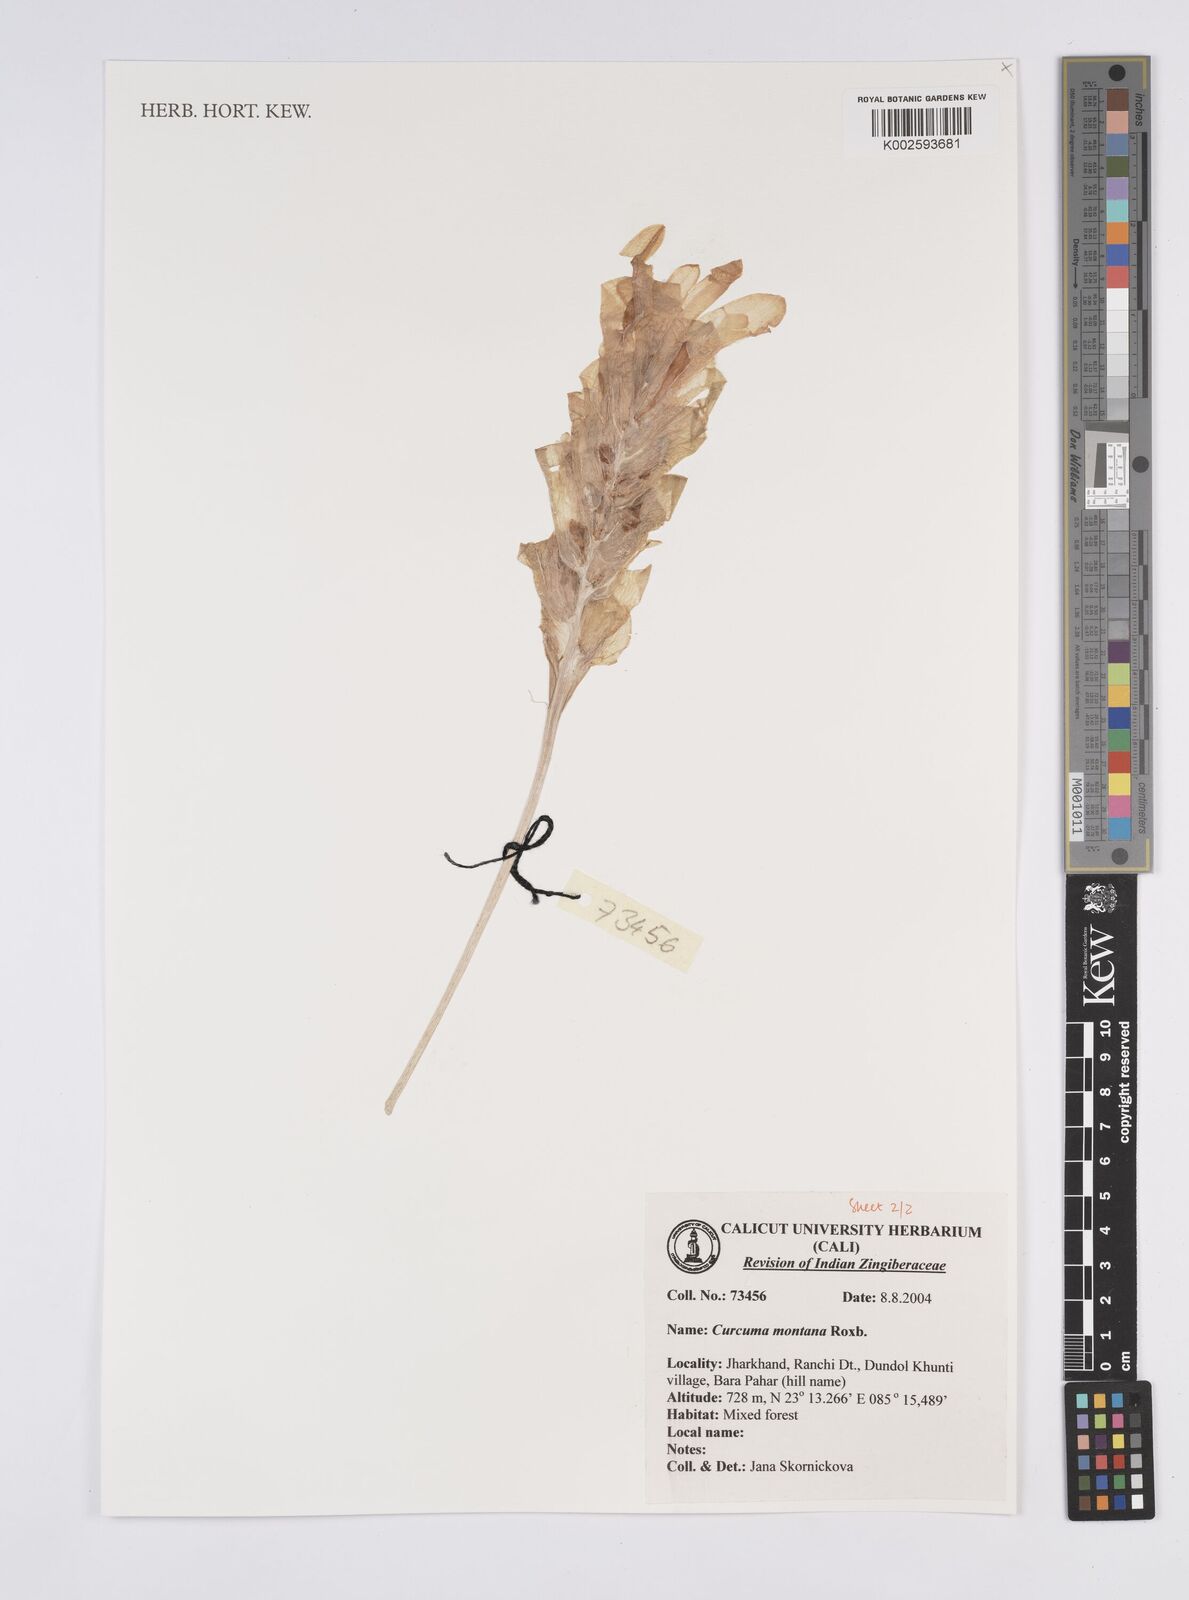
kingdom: Plantae
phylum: Tracheophyta
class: Liliopsida
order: Zingiberales
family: Zingiberaceae
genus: Curcuma
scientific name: Curcuma montana
